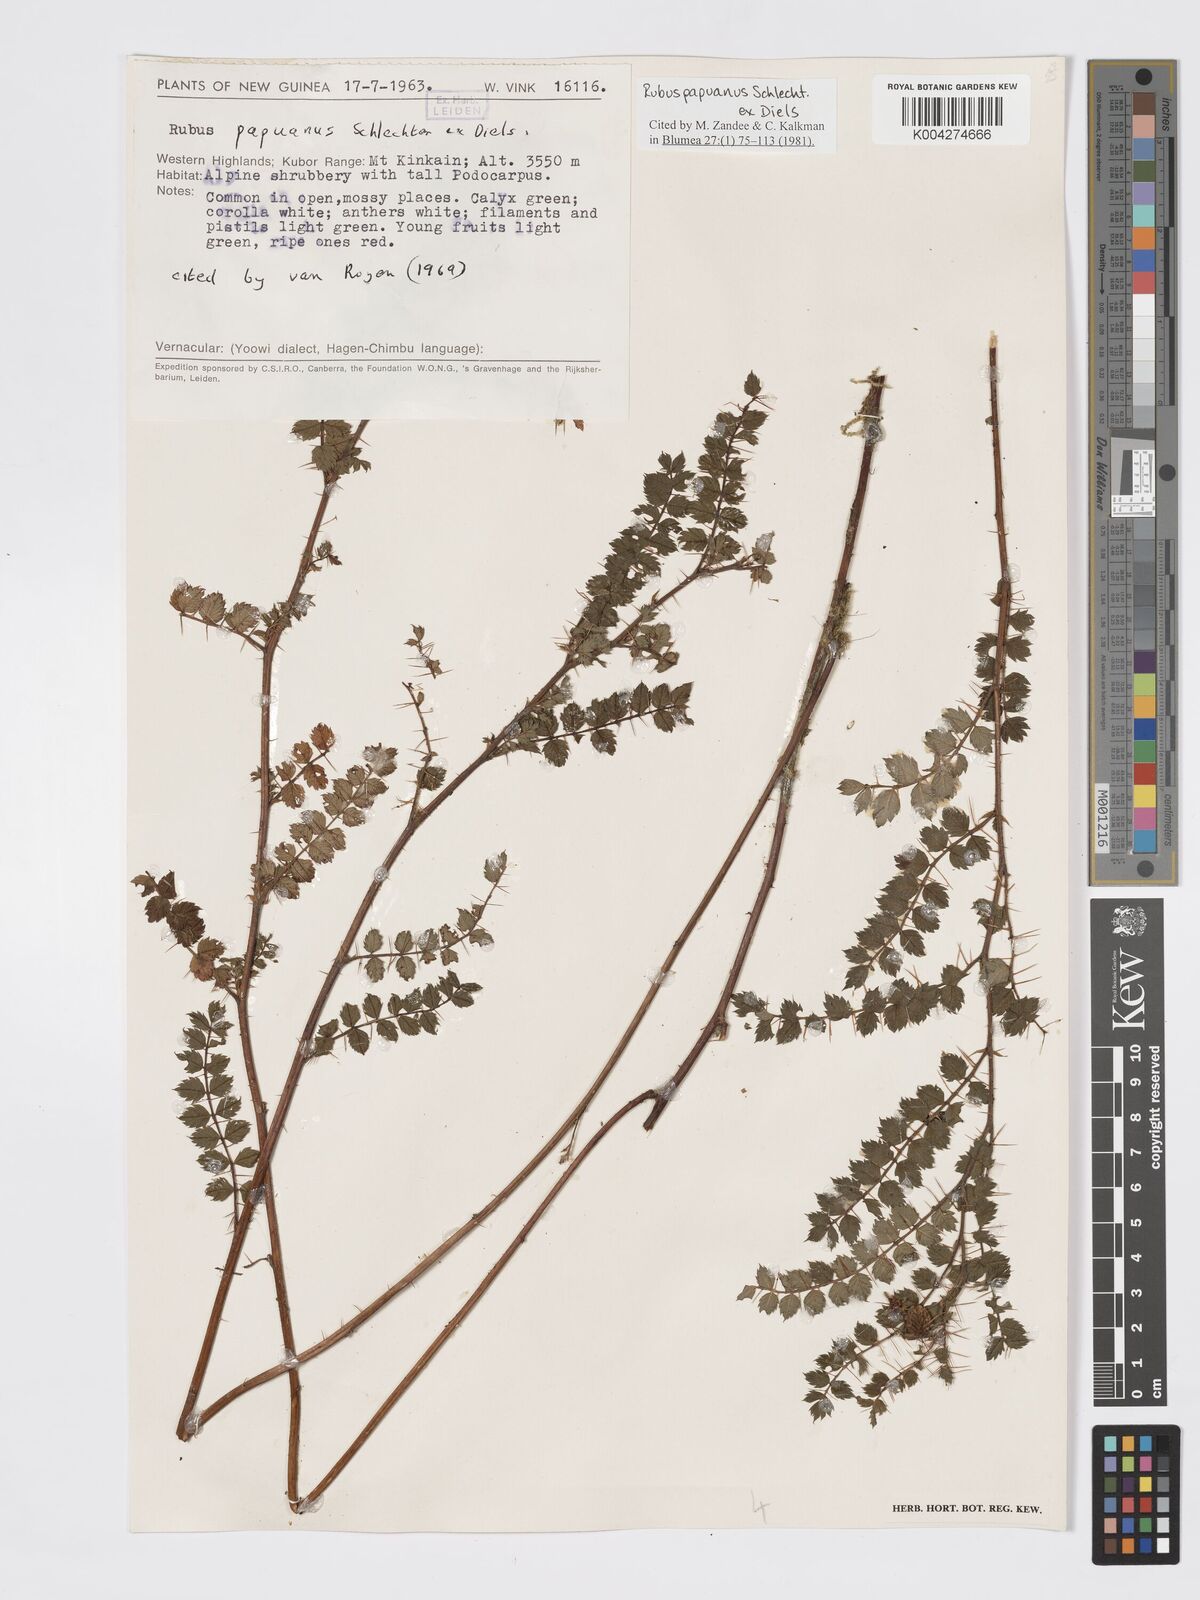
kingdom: Plantae
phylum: Tracheophyta
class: Magnoliopsida
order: Rosales
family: Rosaceae
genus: Rubus
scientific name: Rubus papuanus
